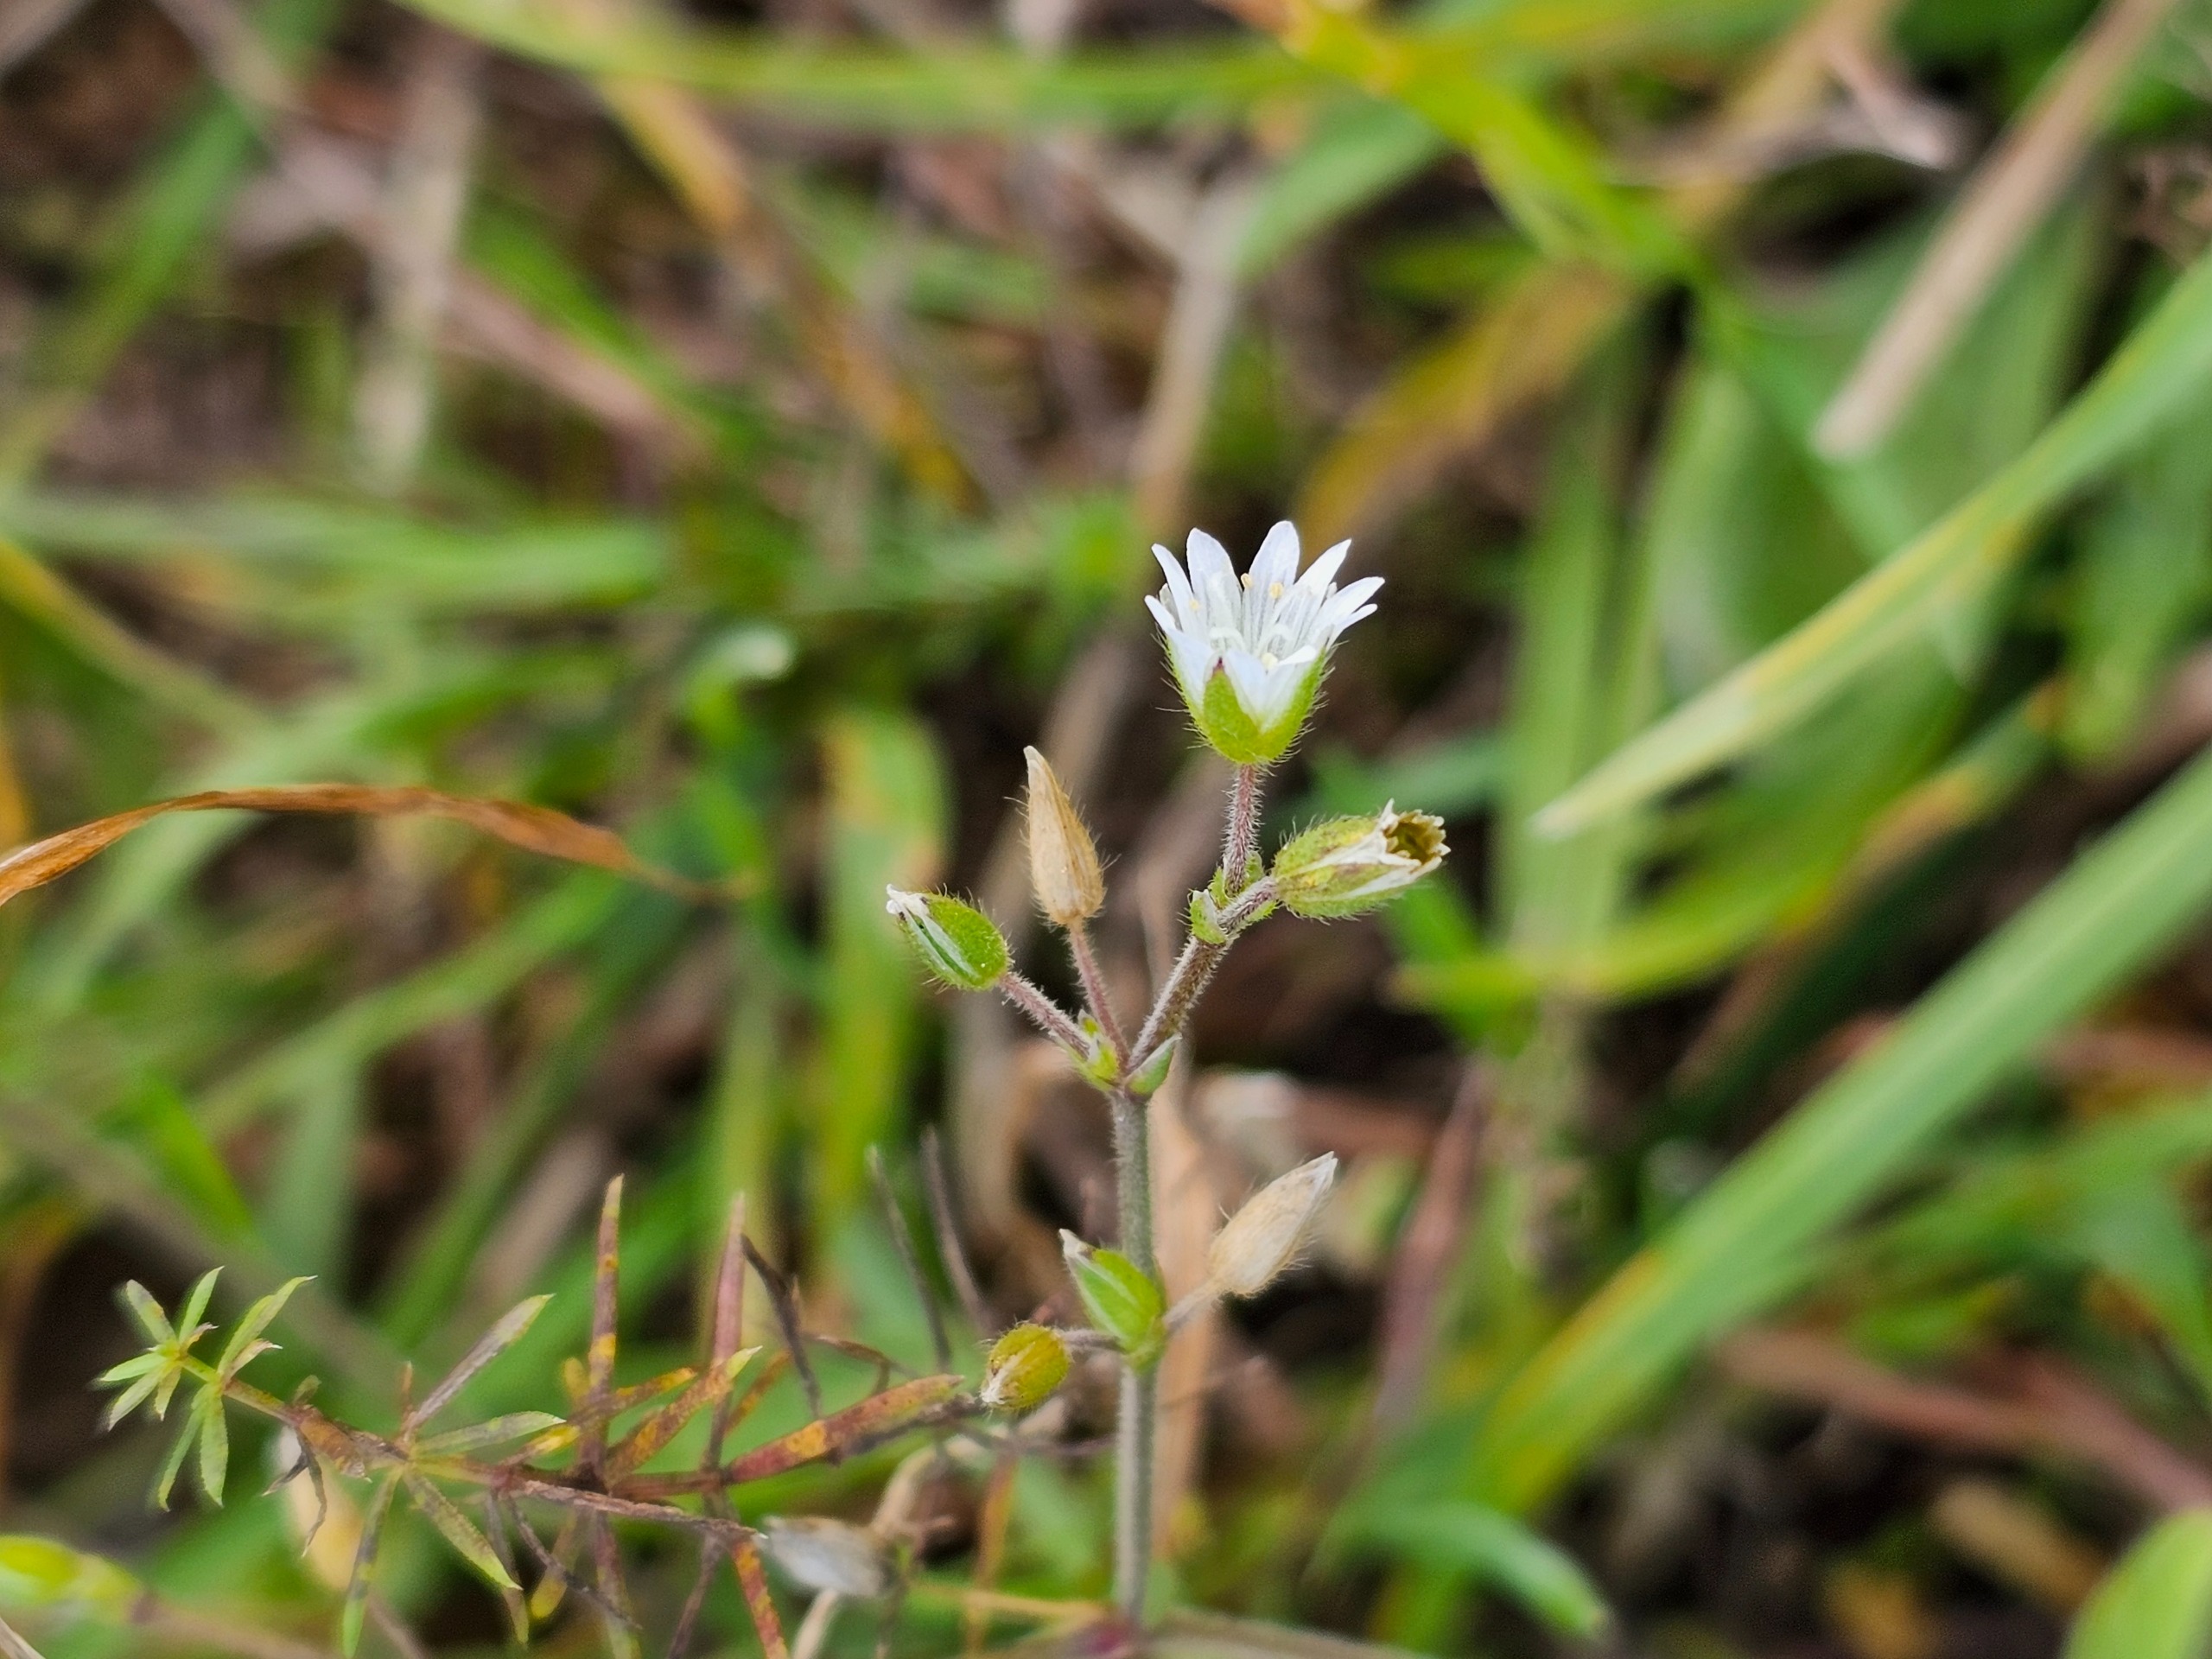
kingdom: Plantae
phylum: Tracheophyta
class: Magnoliopsida
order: Caryophyllales
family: Caryophyllaceae
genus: Cerastium
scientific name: Cerastium fontanum
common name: Almindelig hønsetarm
